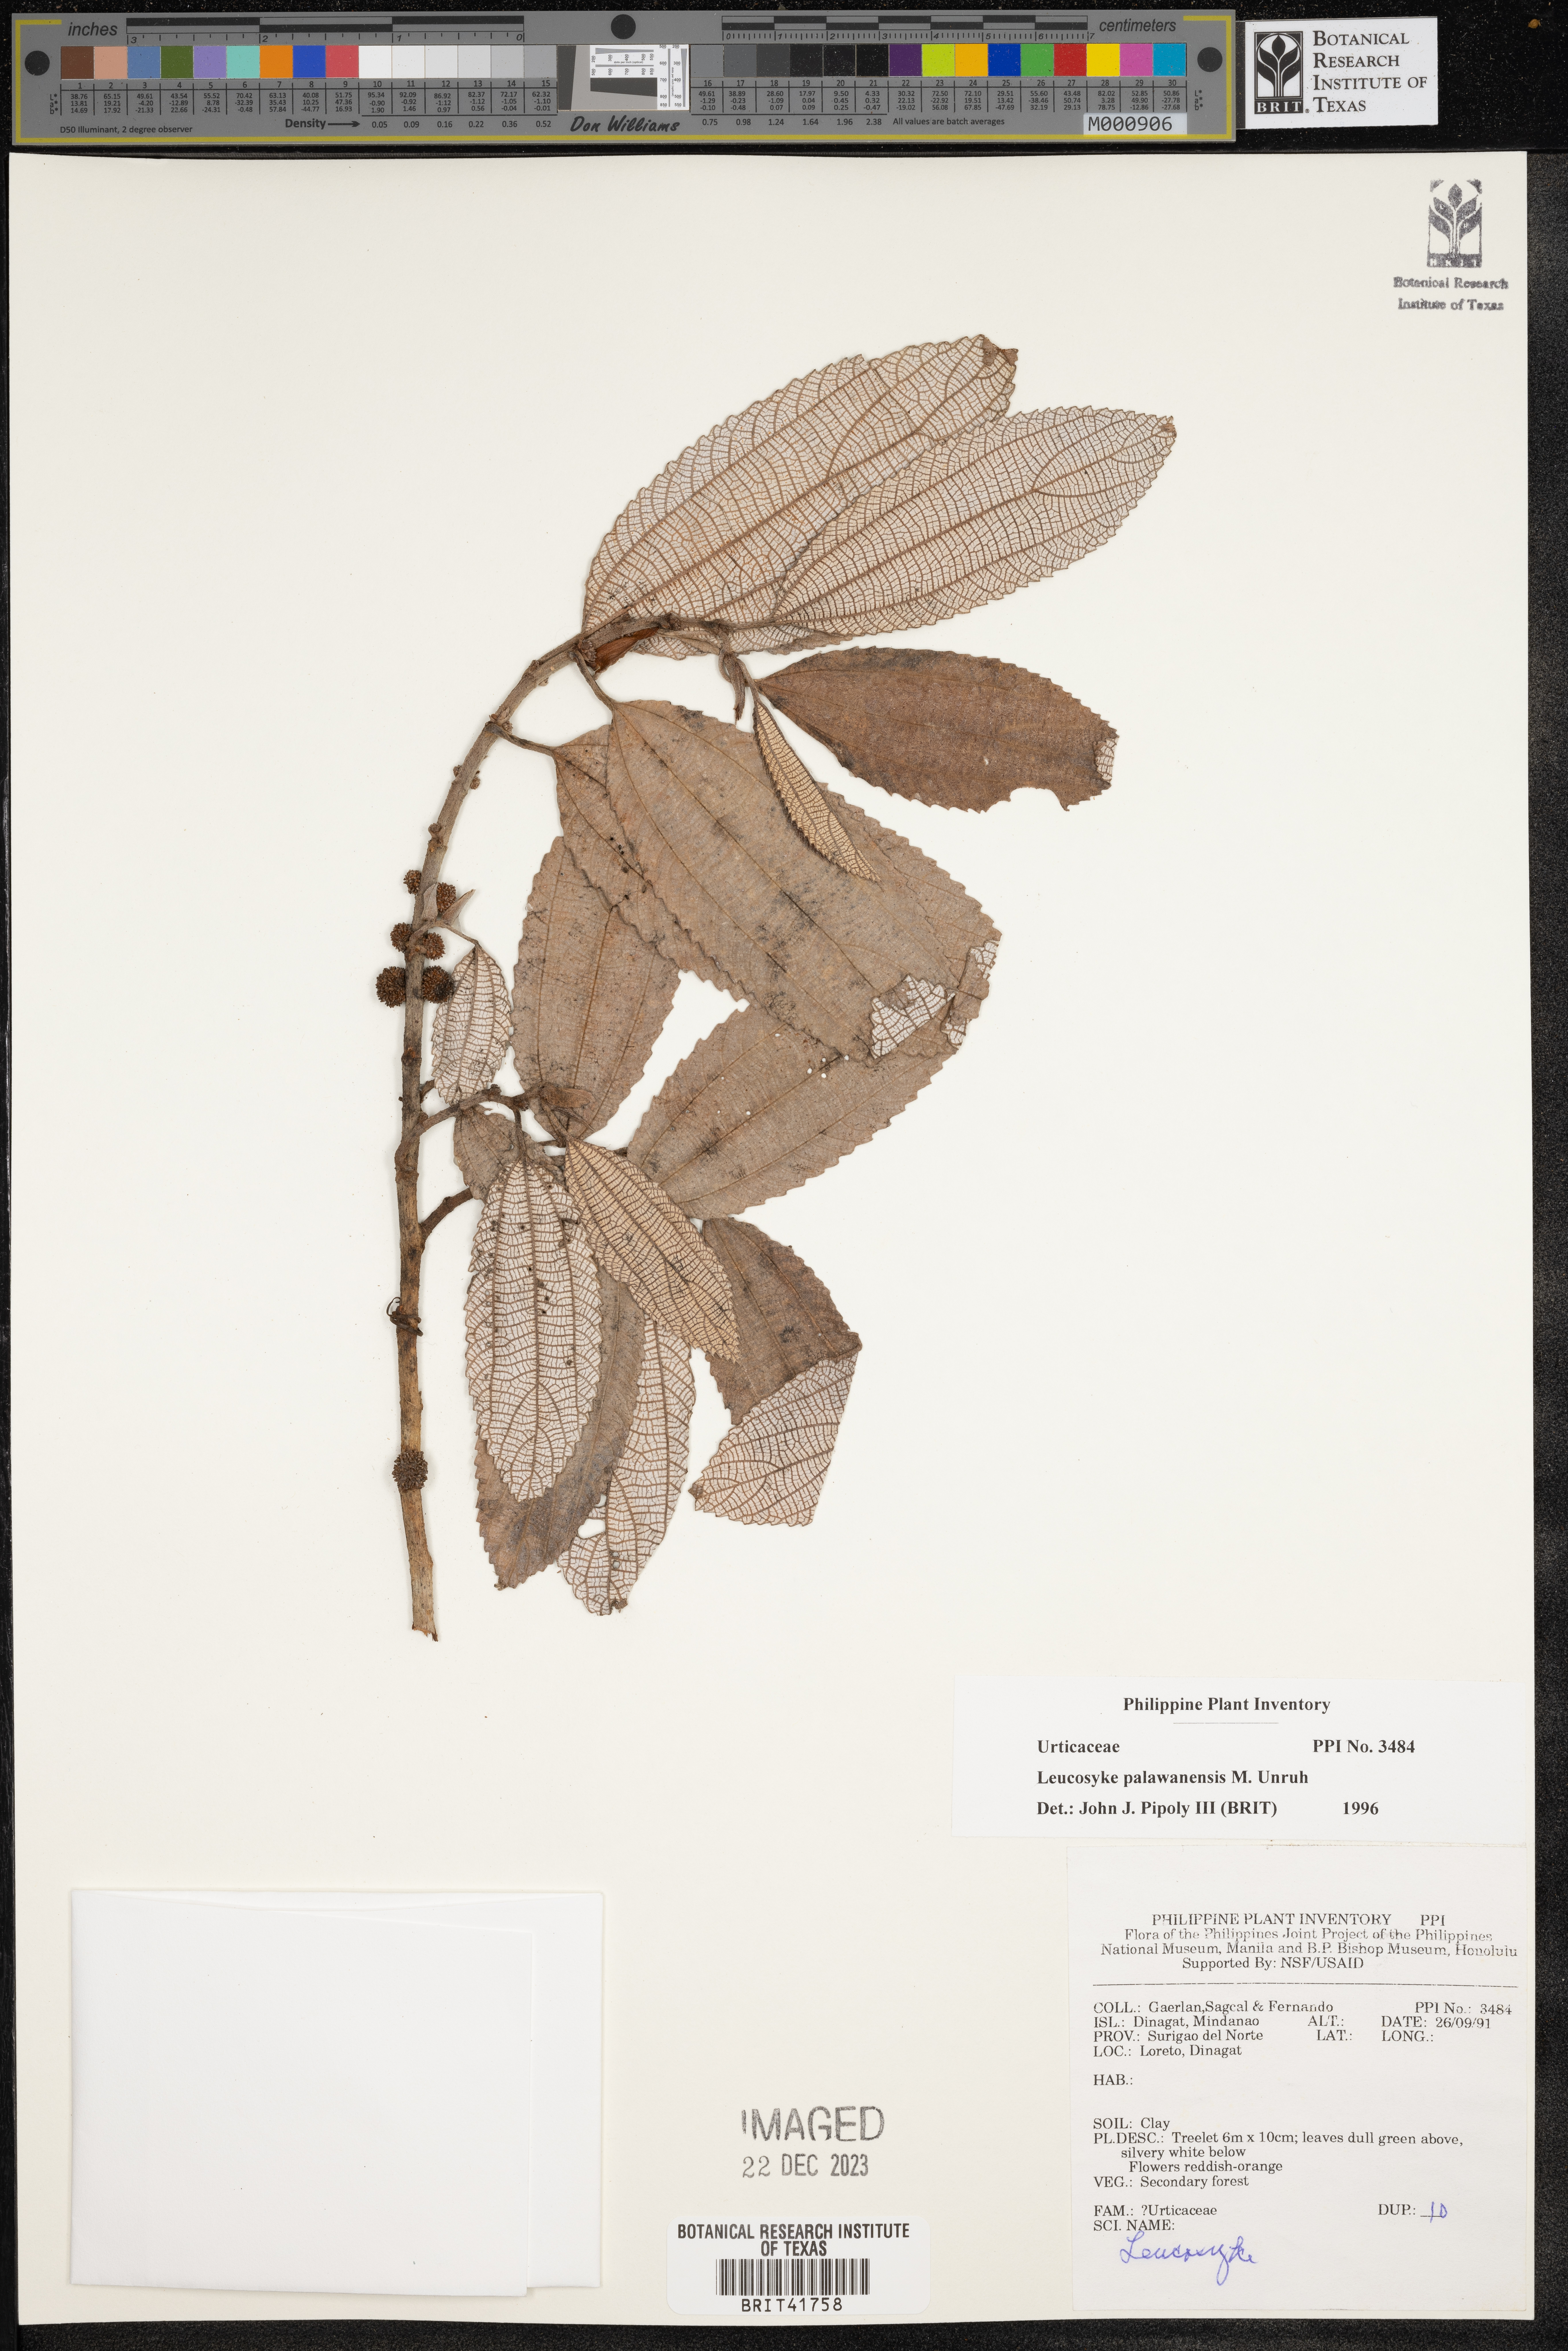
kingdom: Plantae
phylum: Tracheophyta
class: Magnoliopsida
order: Rosales
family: Urticaceae
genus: Leucosyke
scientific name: Leucosyke capitellata
